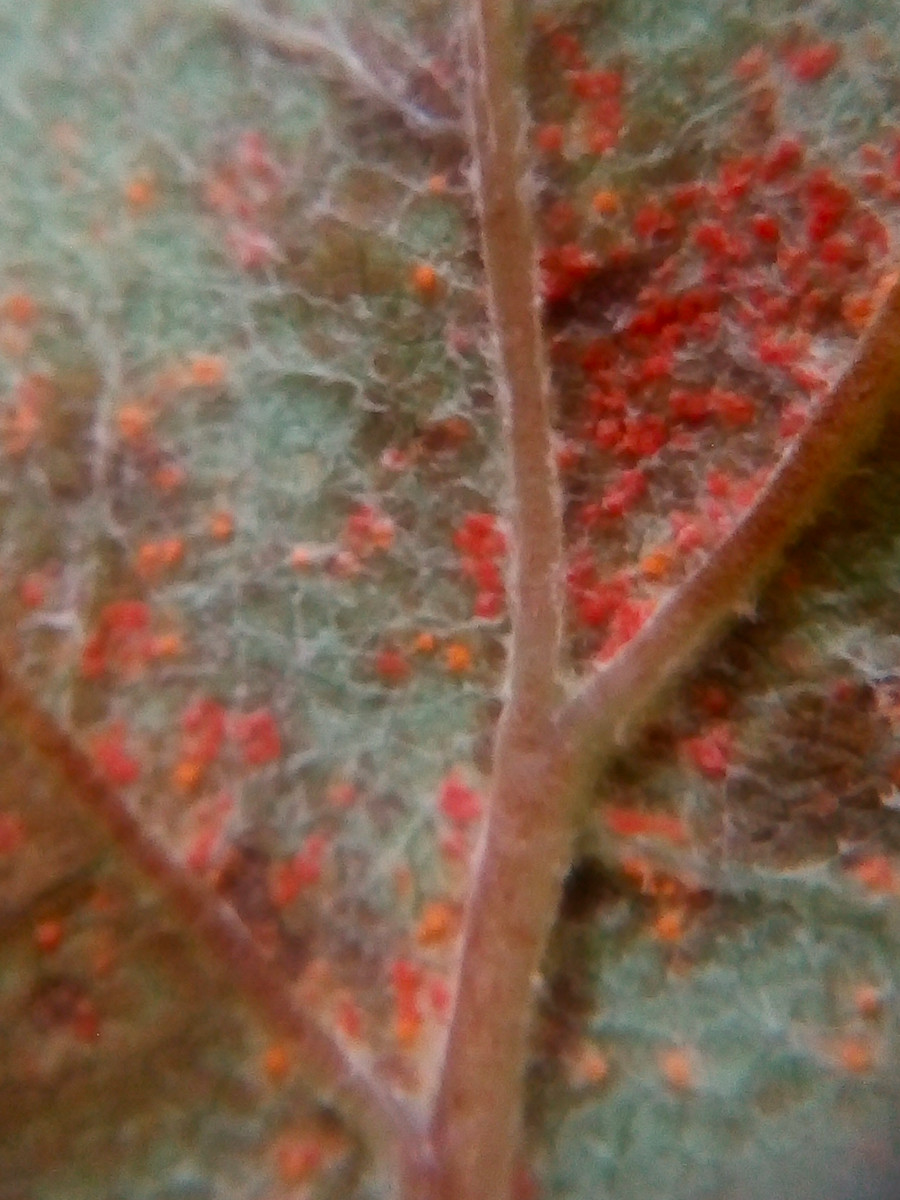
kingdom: Fungi
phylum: Basidiomycota
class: Pucciniomycetes
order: Pucciniales
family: Coleosporiaceae
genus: Coleosporium
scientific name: Coleosporium tussilaginis
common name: almindelig fyrrenålerust
